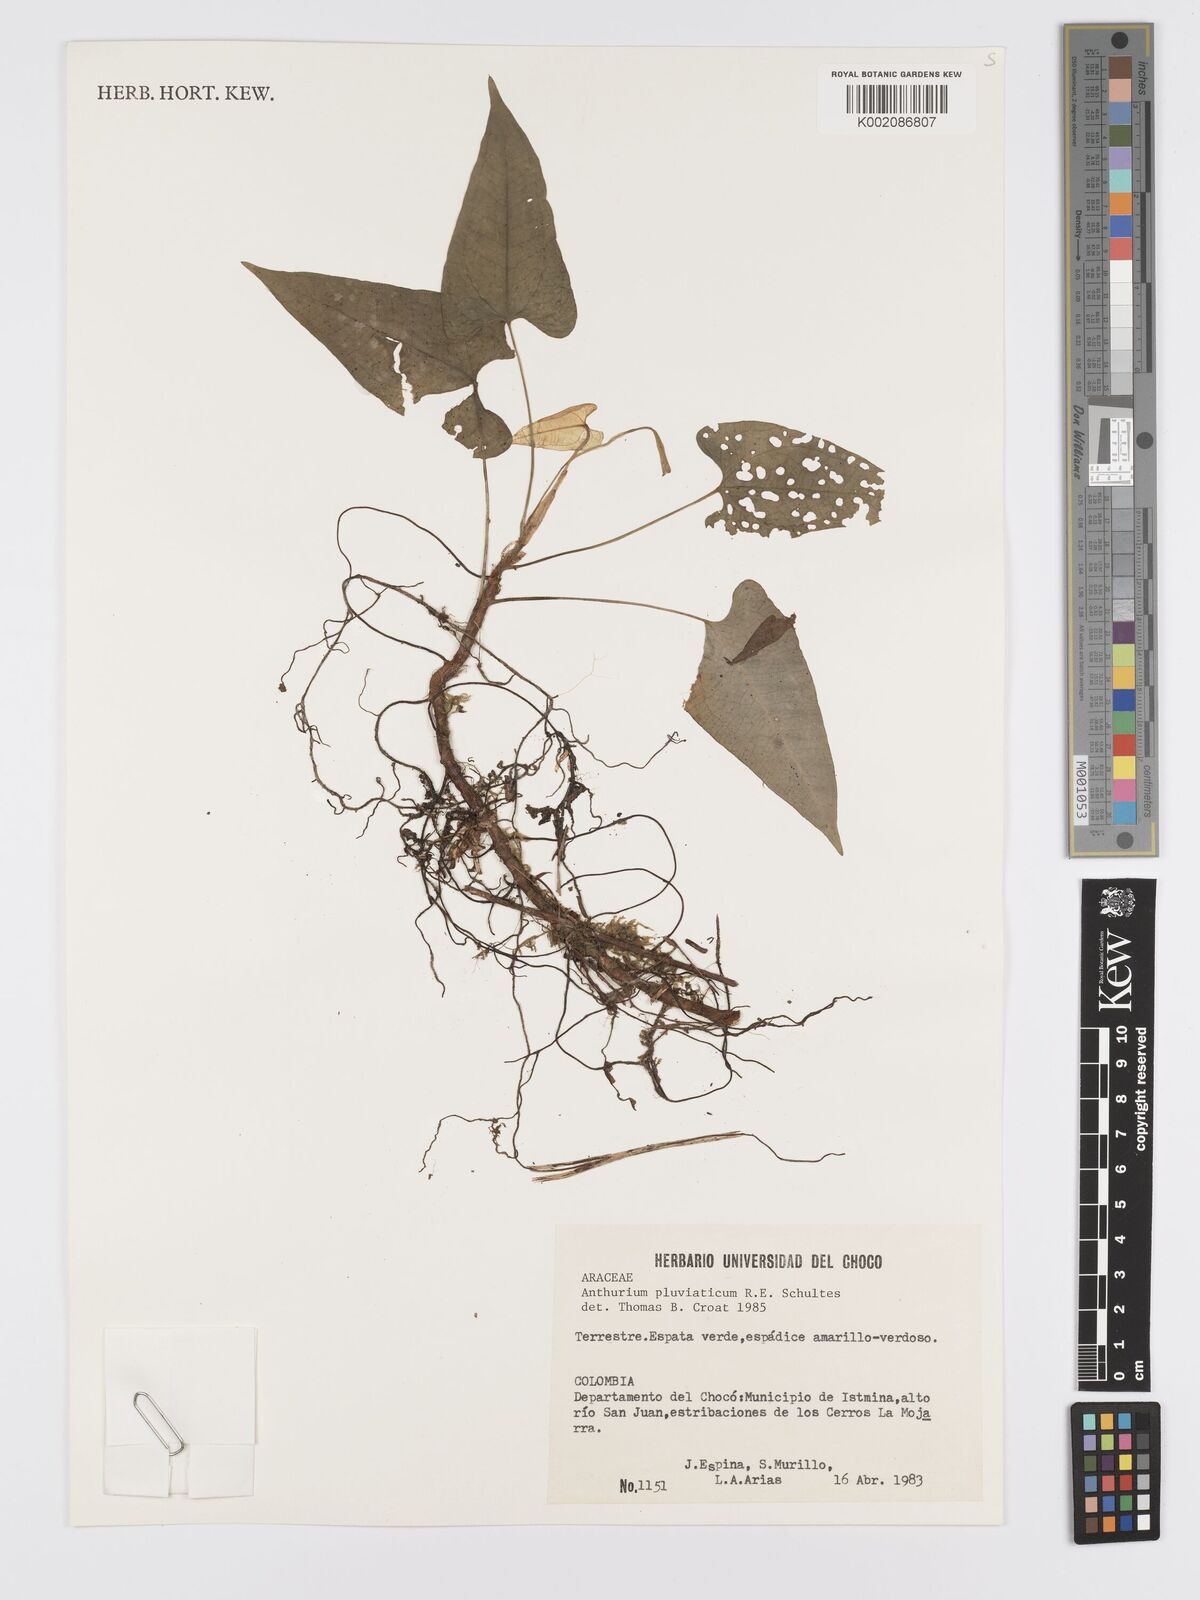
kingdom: Plantae
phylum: Tracheophyta
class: Liliopsida
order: Alismatales
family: Araceae
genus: Anthurium
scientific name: Anthurium pluviaticum
